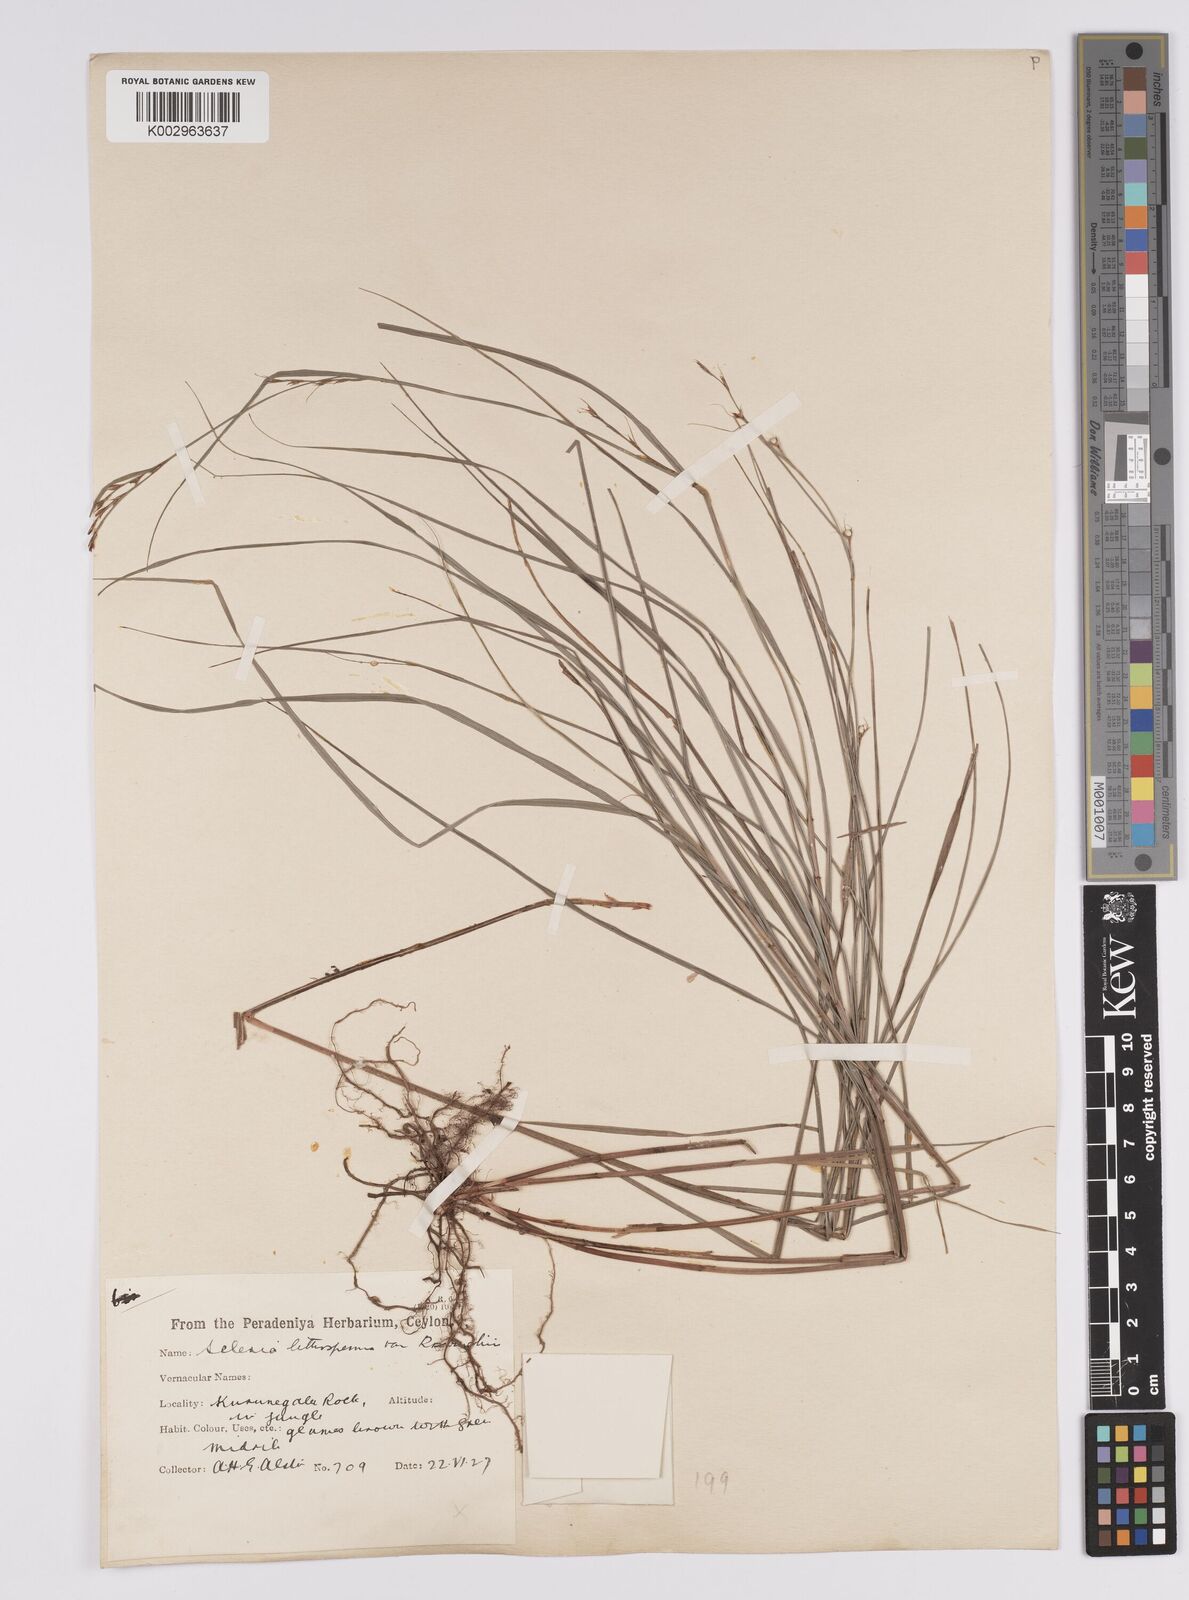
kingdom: Plantae
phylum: Tracheophyta
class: Liliopsida
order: Poales
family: Cyperaceae
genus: Scleria
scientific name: Scleria lithosperma
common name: Florida keys nut-rush
